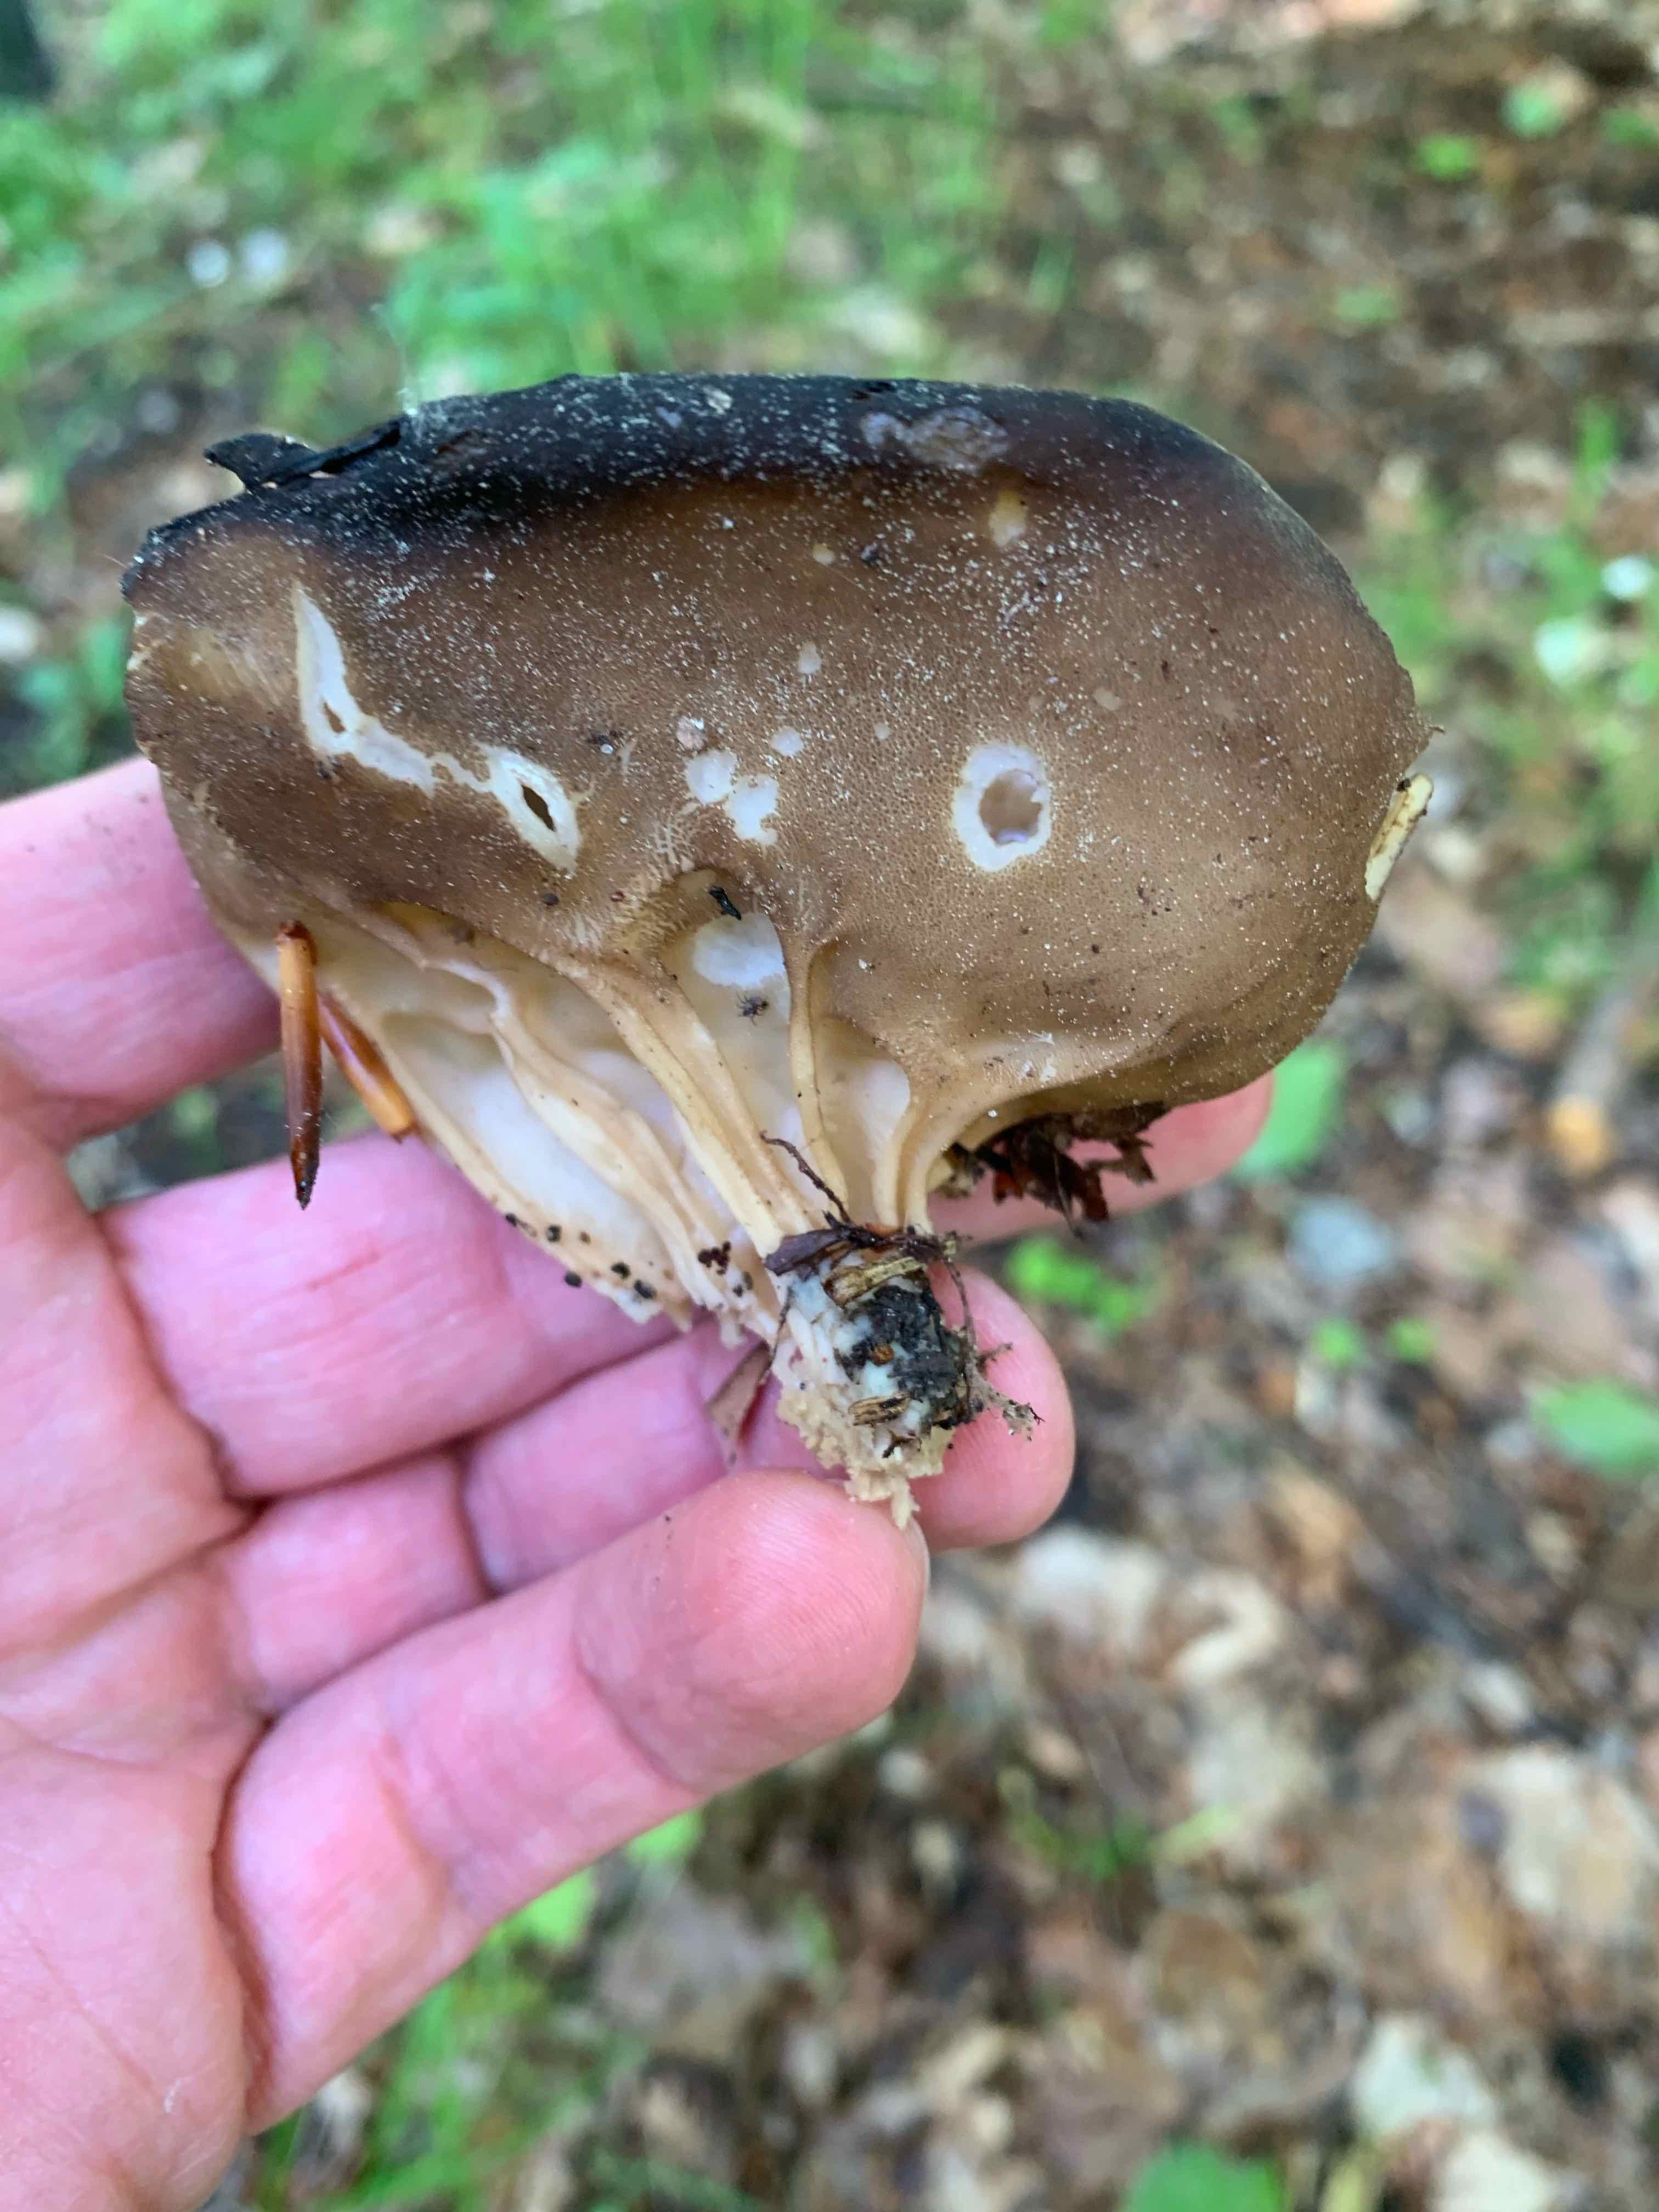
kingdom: Fungi
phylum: Ascomycota
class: Pezizomycetes
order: Pezizales
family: Helvellaceae
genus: Helvella
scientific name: Helvella acetabulum
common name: pokal-foldhat
